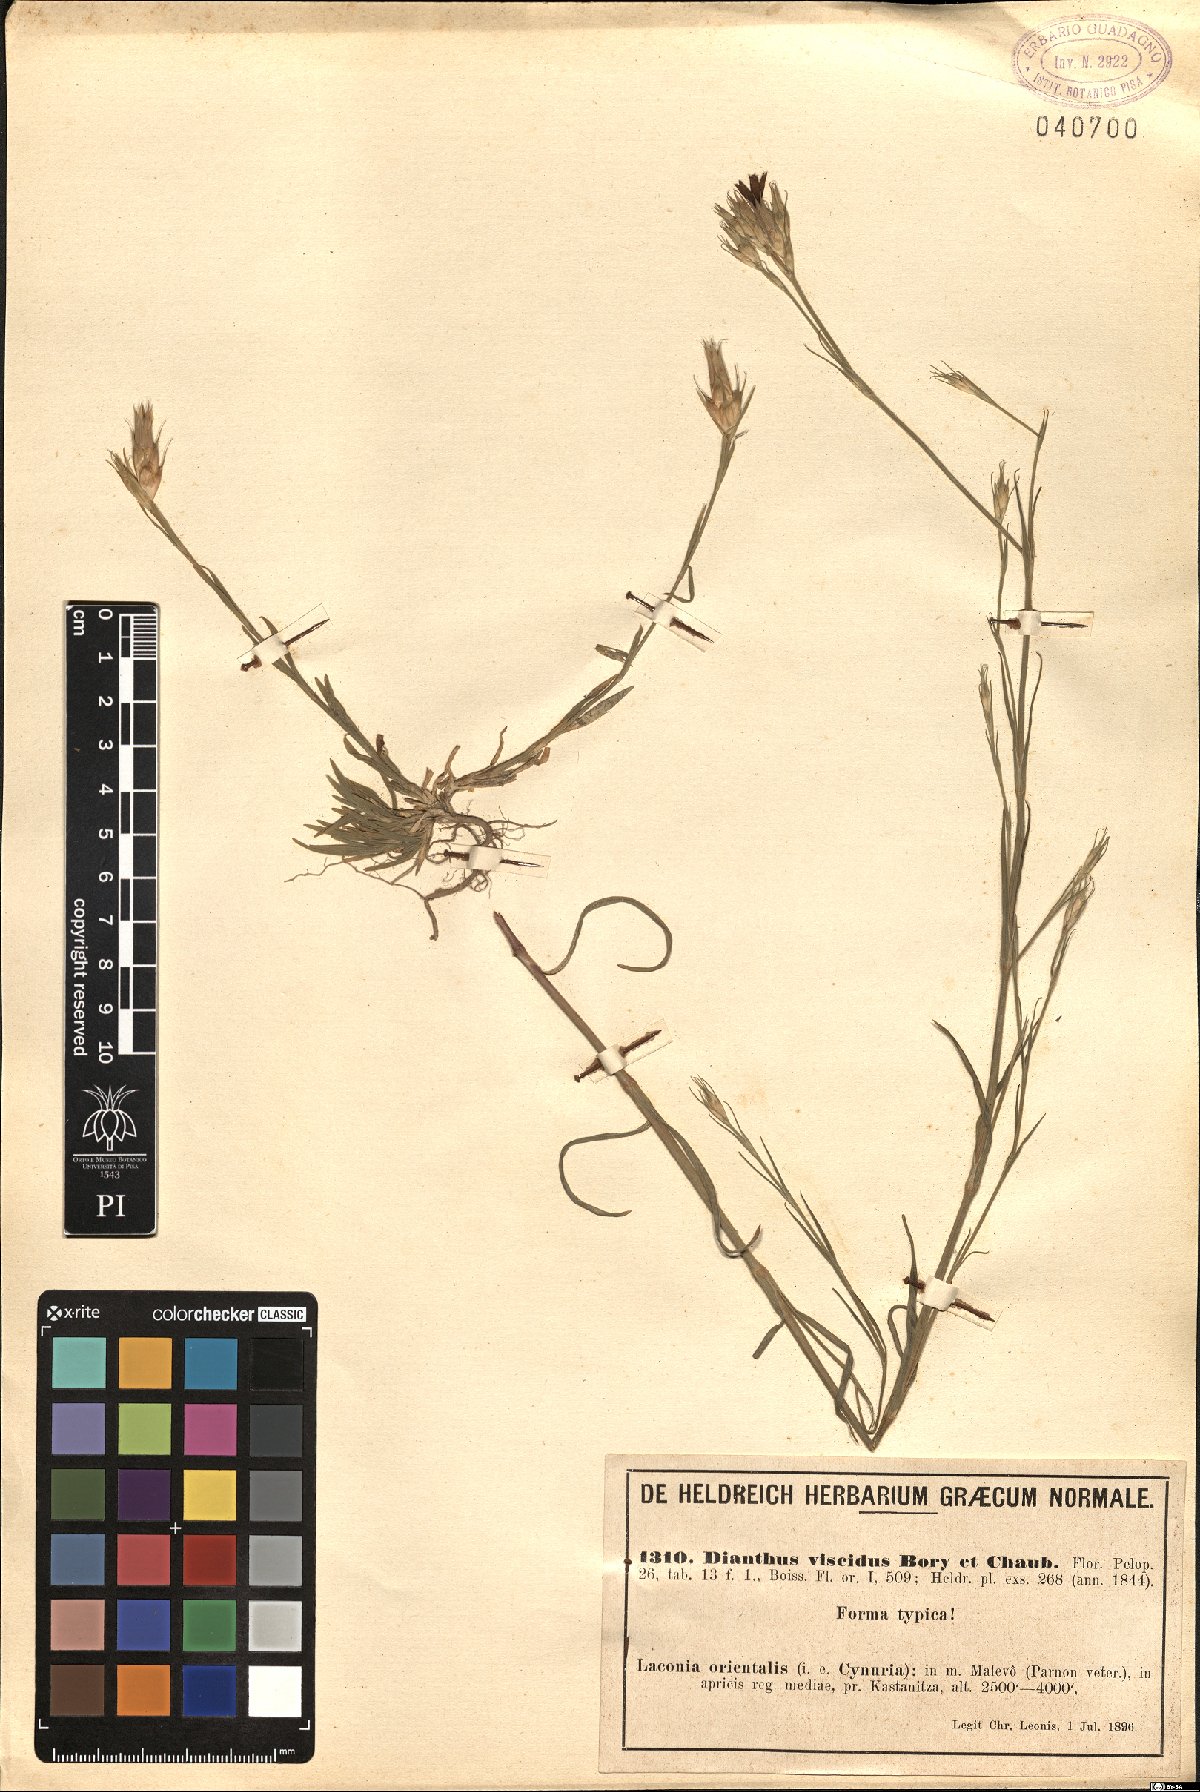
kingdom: Plantae
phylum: Tracheophyta
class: Magnoliopsida
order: Caryophyllales
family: Caryophyllaceae
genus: Dianthus
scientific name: Dianthus viscidus
